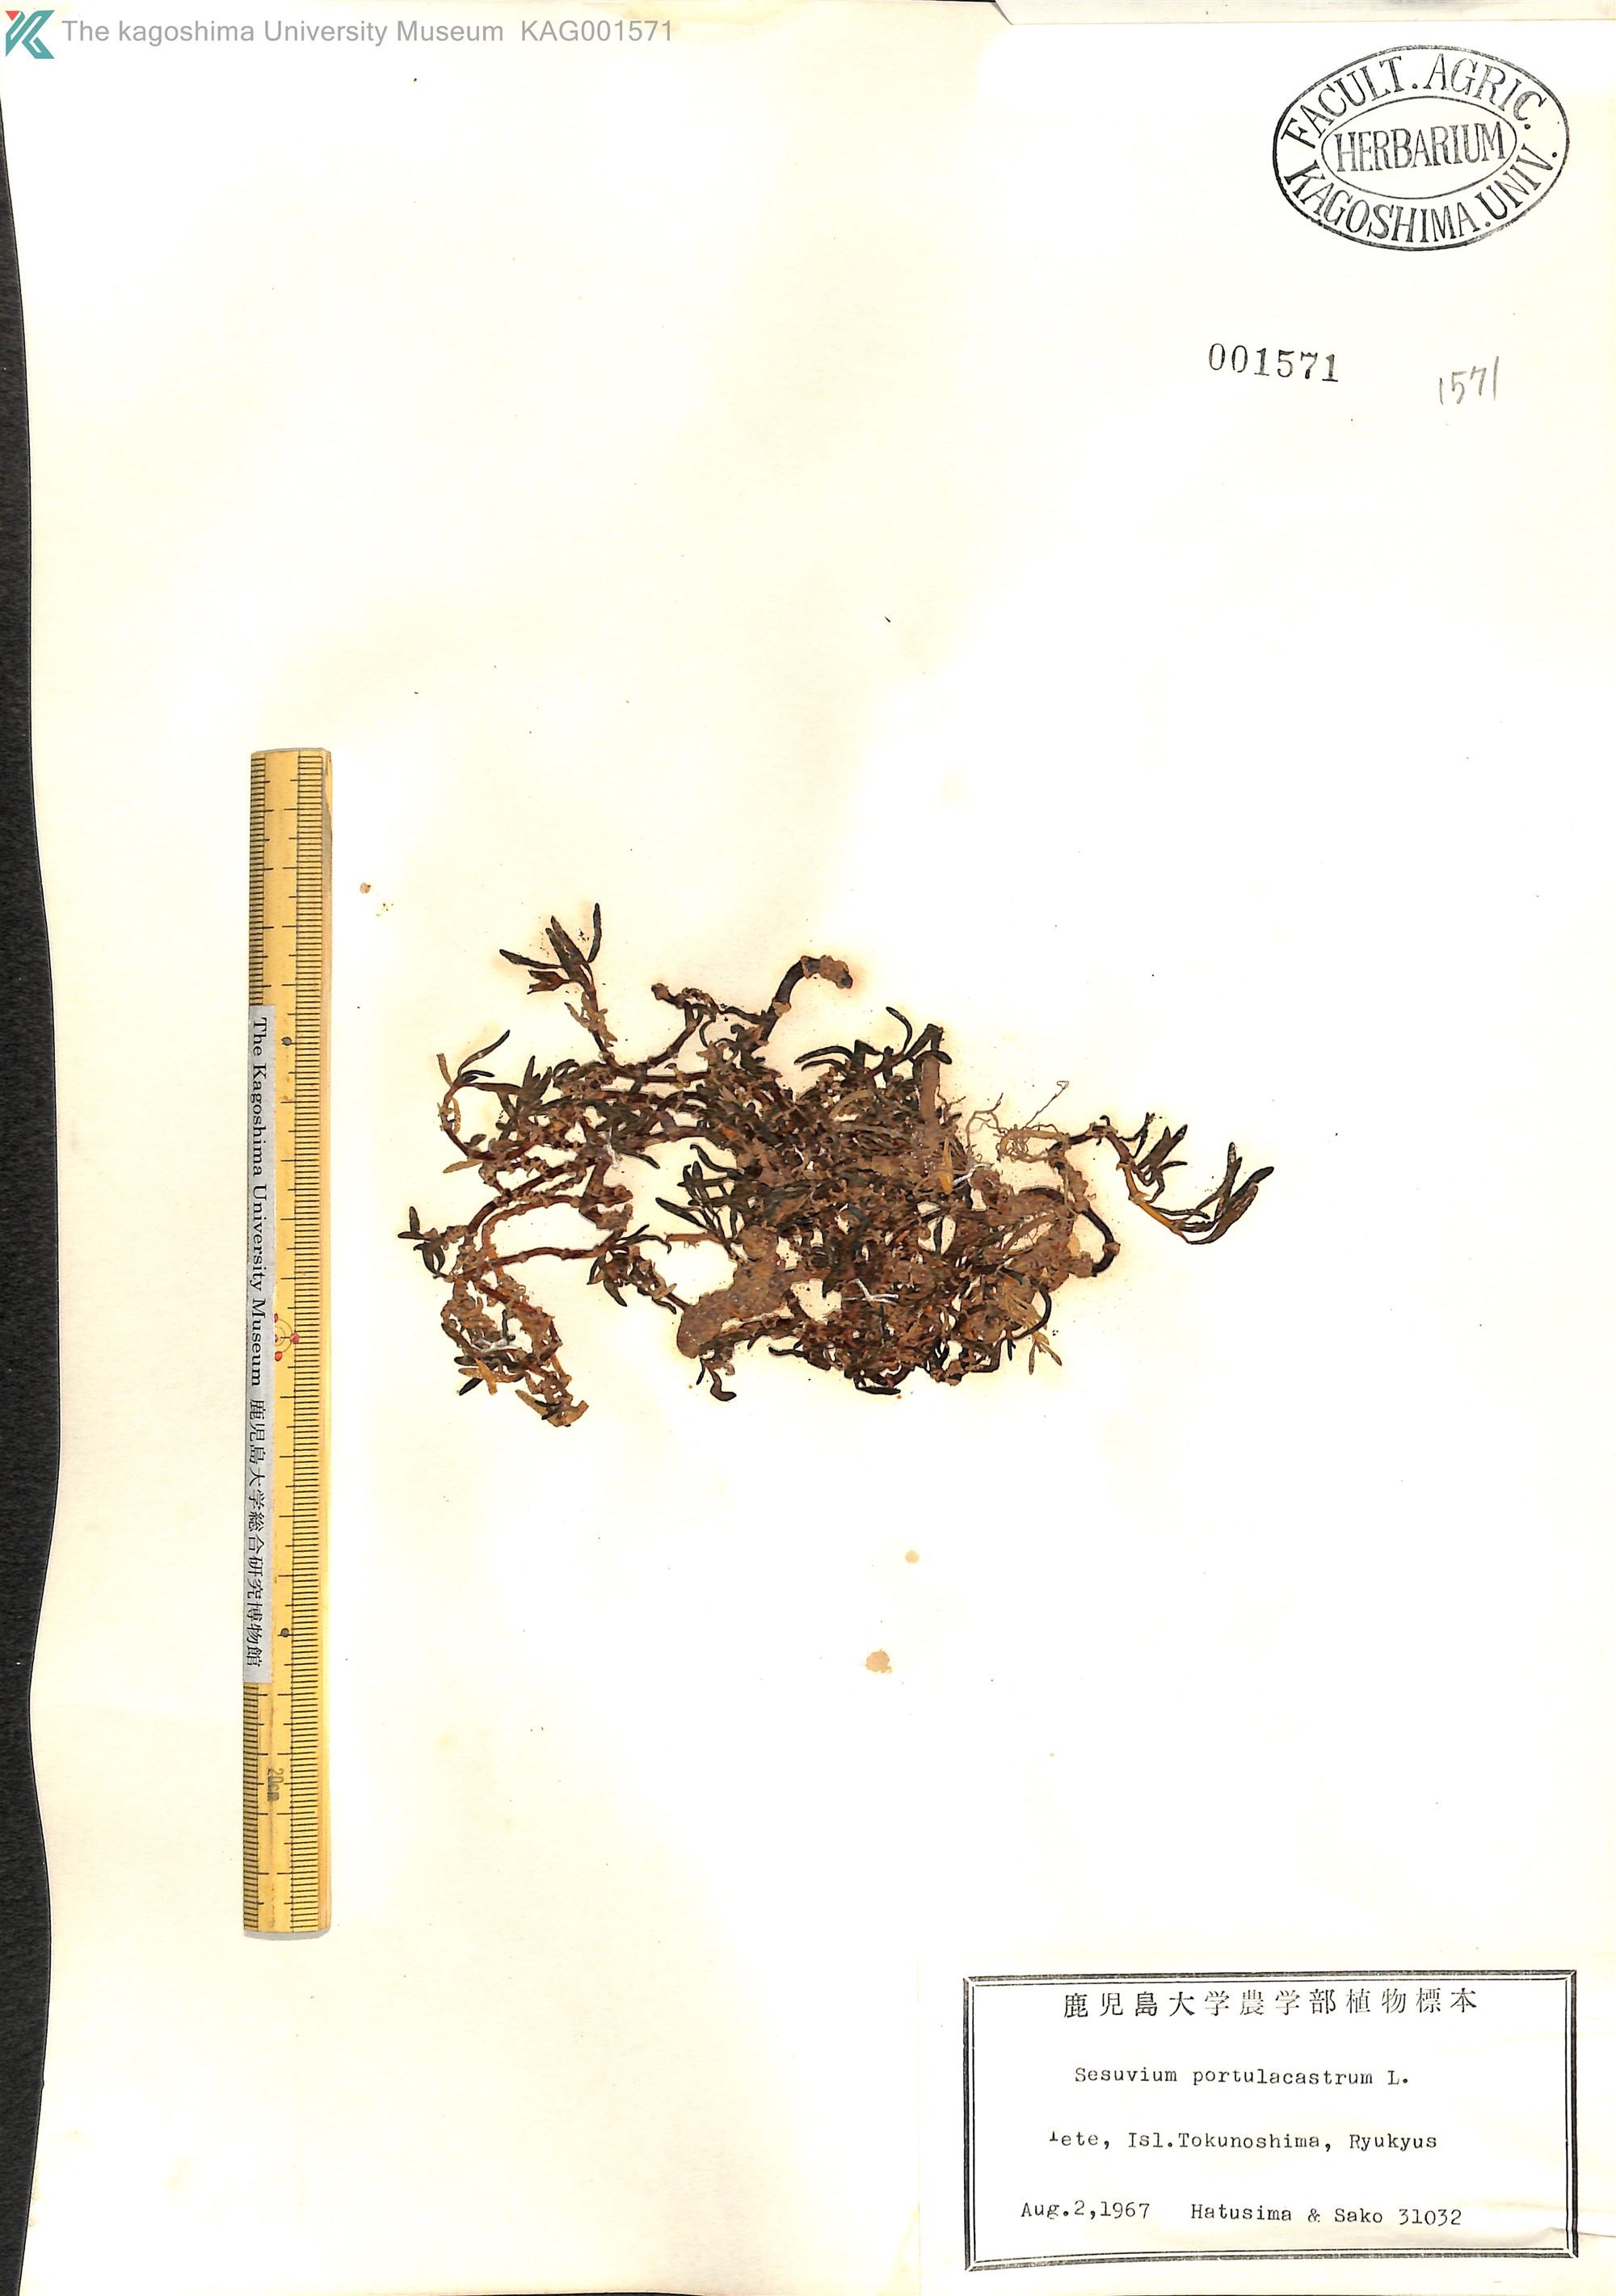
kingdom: Plantae
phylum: Tracheophyta
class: Magnoliopsida
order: Caryophyllales
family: Aizoaceae
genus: Sesuvium
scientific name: Sesuvium portulacastrum
